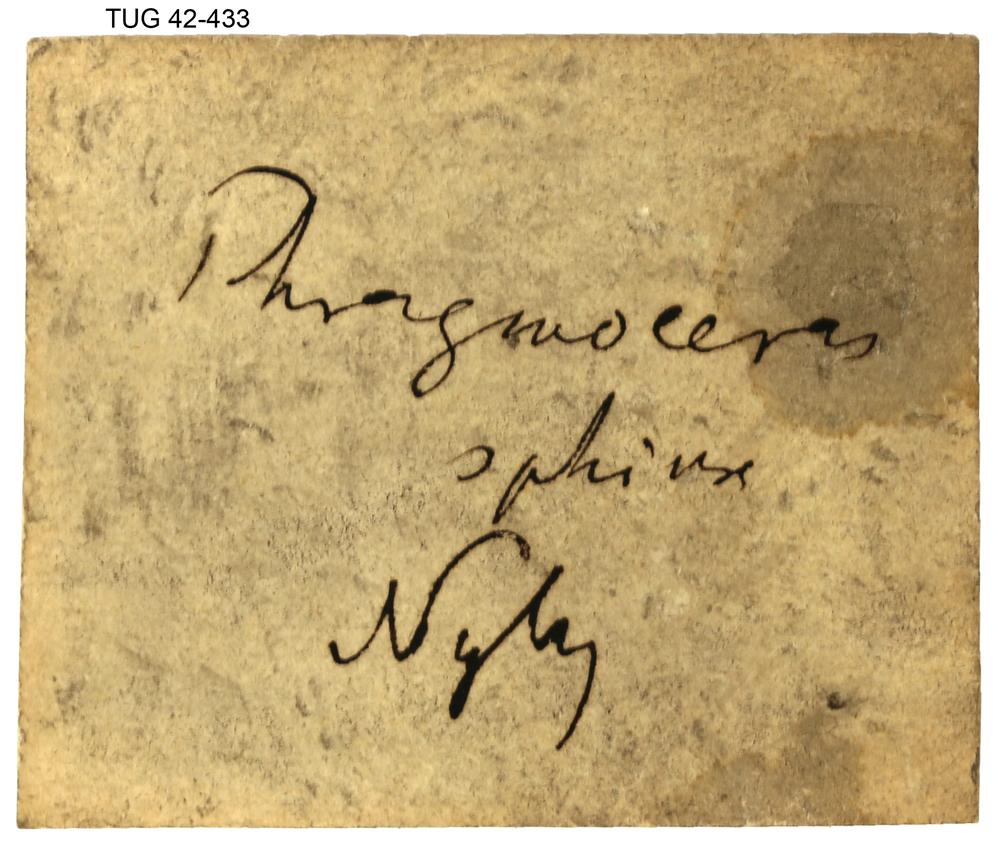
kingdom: Animalia
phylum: Mollusca
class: Cephalopoda
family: Protophragmoceratidae
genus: Protophragmoceras
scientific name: Protophragmoceras Phragmoceras sphynx
